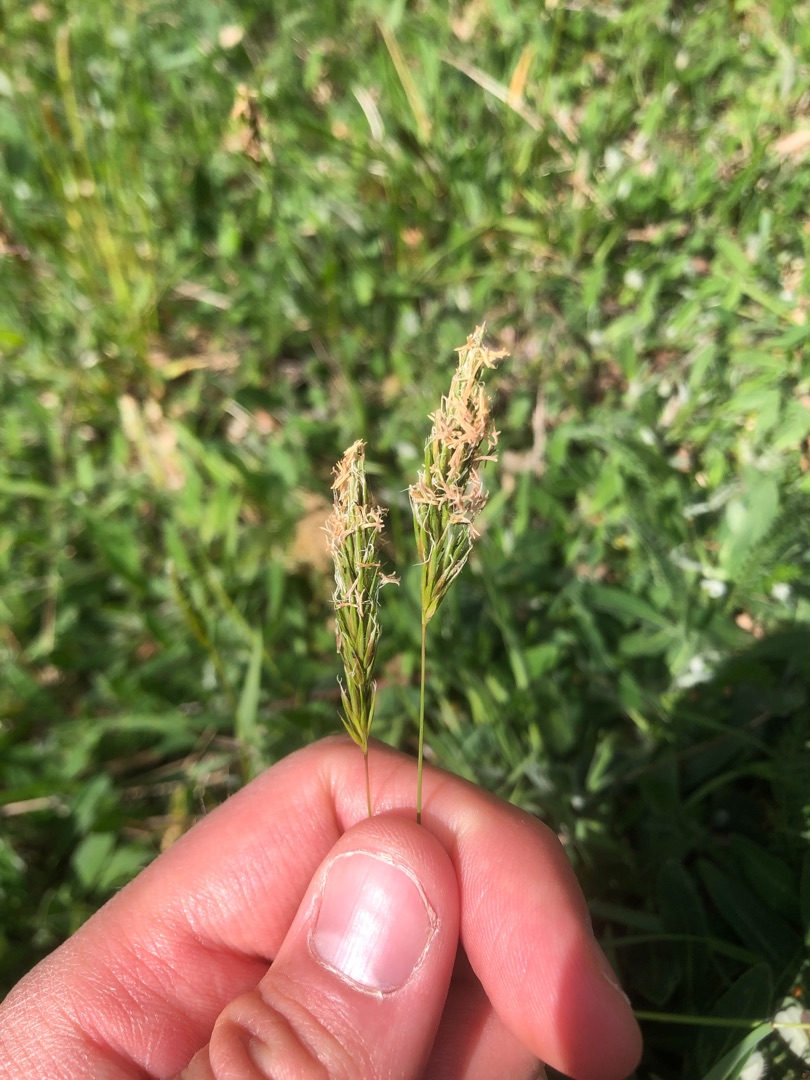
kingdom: Plantae
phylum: Tracheophyta
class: Liliopsida
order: Poales
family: Poaceae
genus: Anthoxanthum
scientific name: Anthoxanthum odoratum
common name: Vellugtende gulaks
